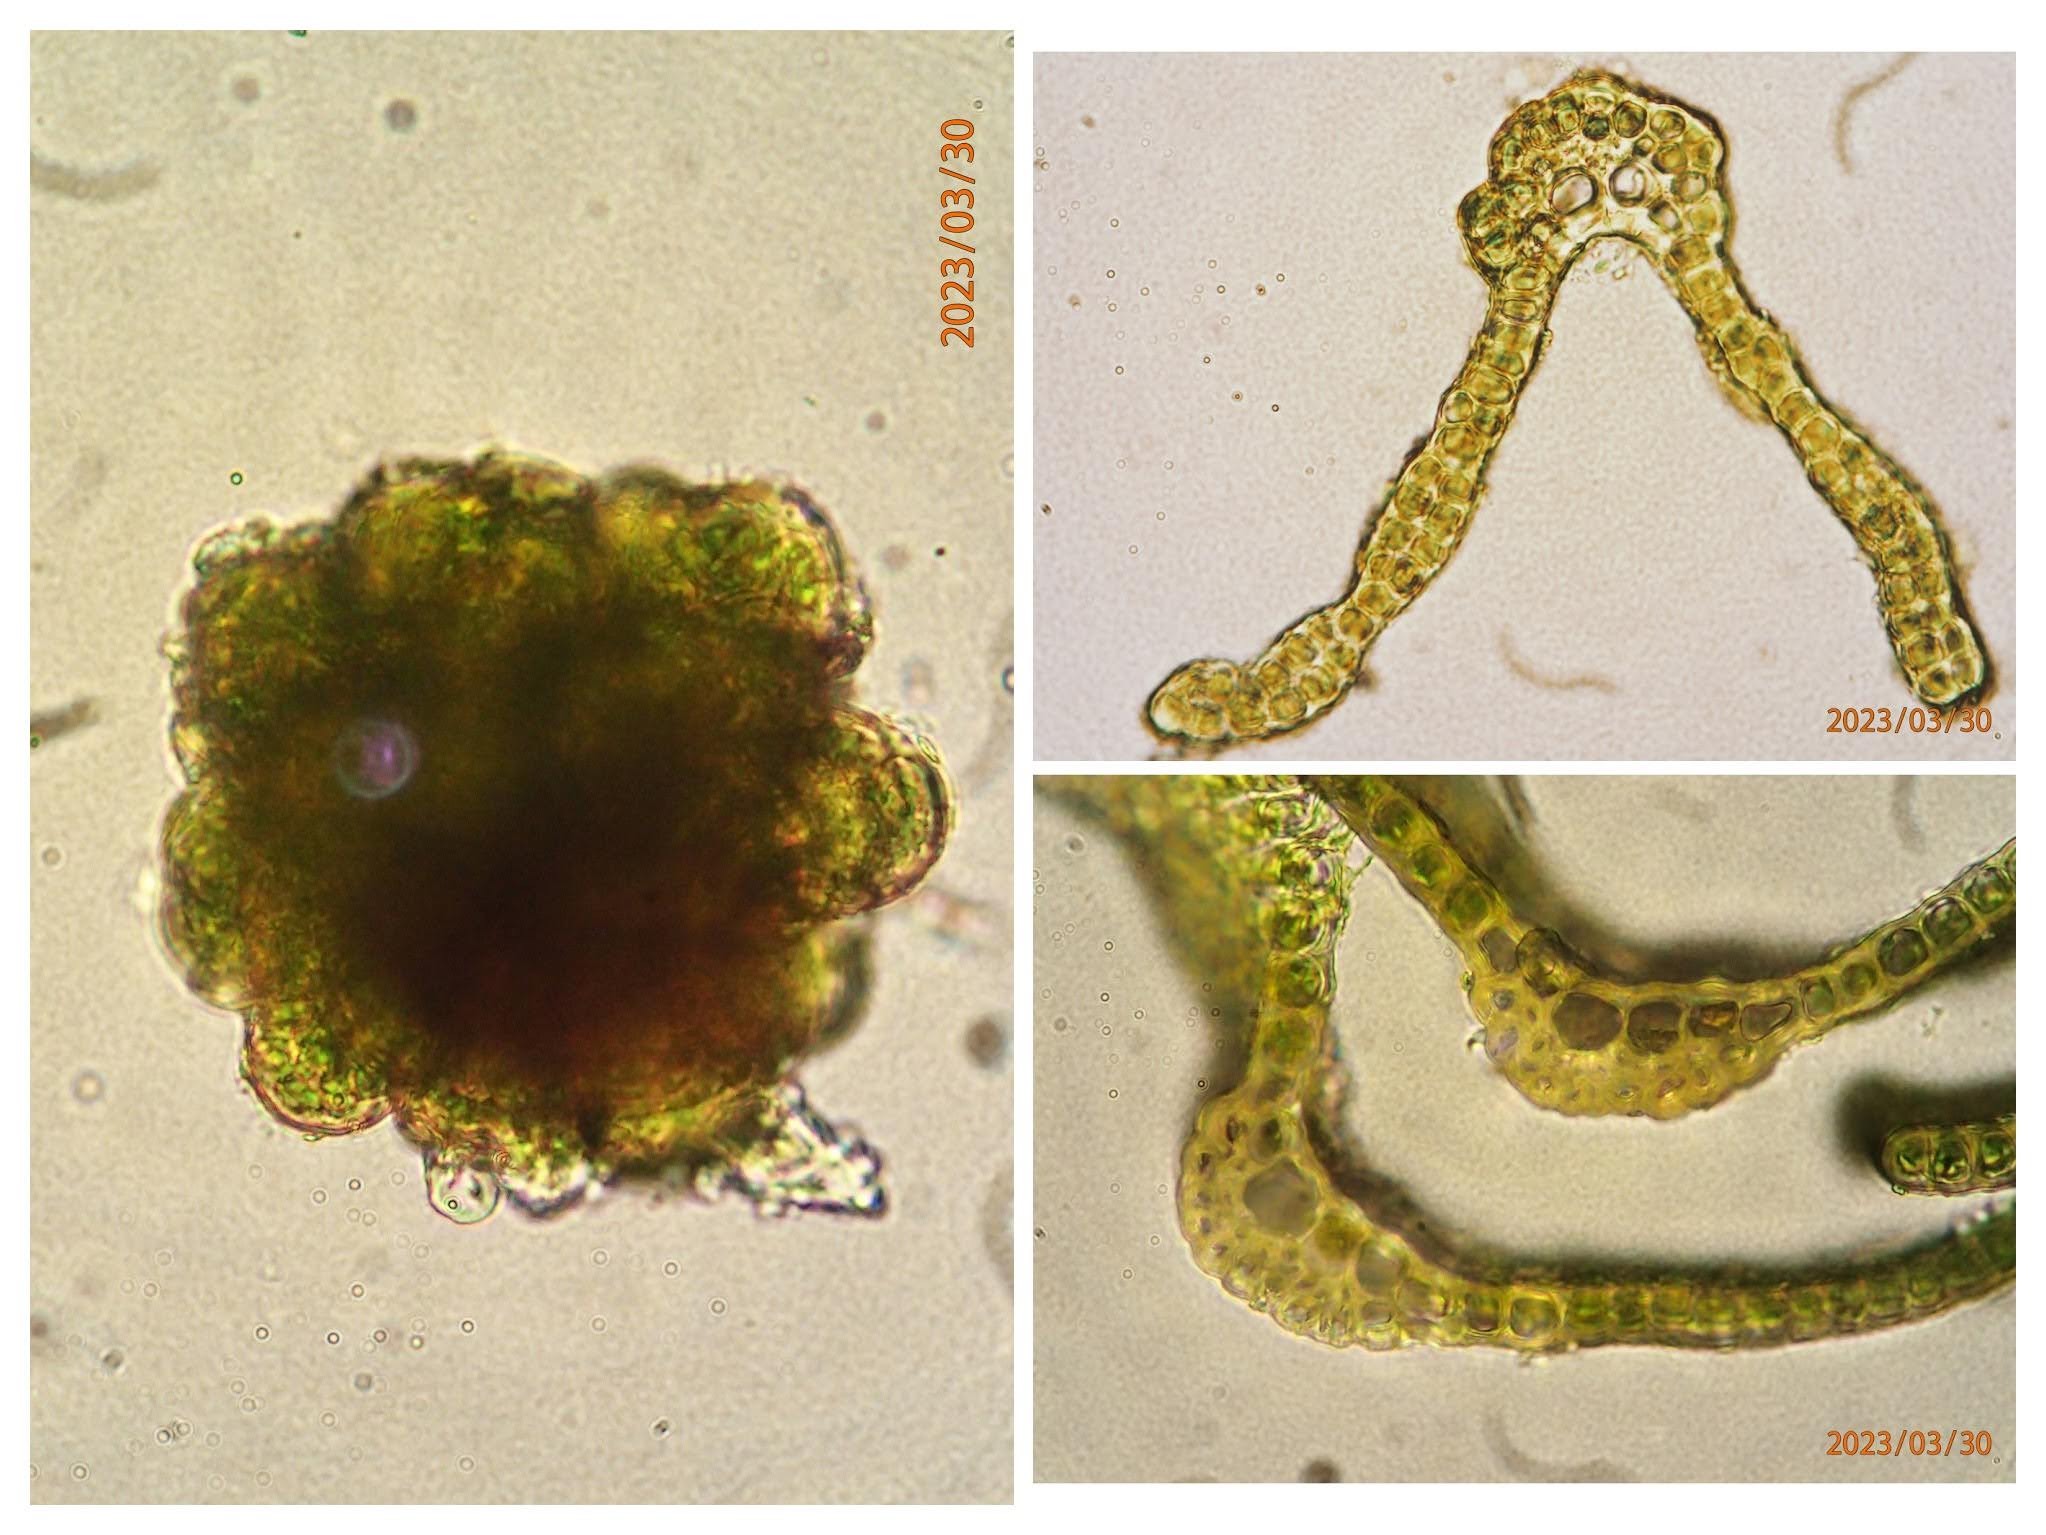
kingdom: Plantae
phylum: Bryophyta
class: Bryopsida
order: Grimmiales
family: Grimmiaceae
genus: Grimmia
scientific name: Grimmia hartmanii
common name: Hartmans gråmos
